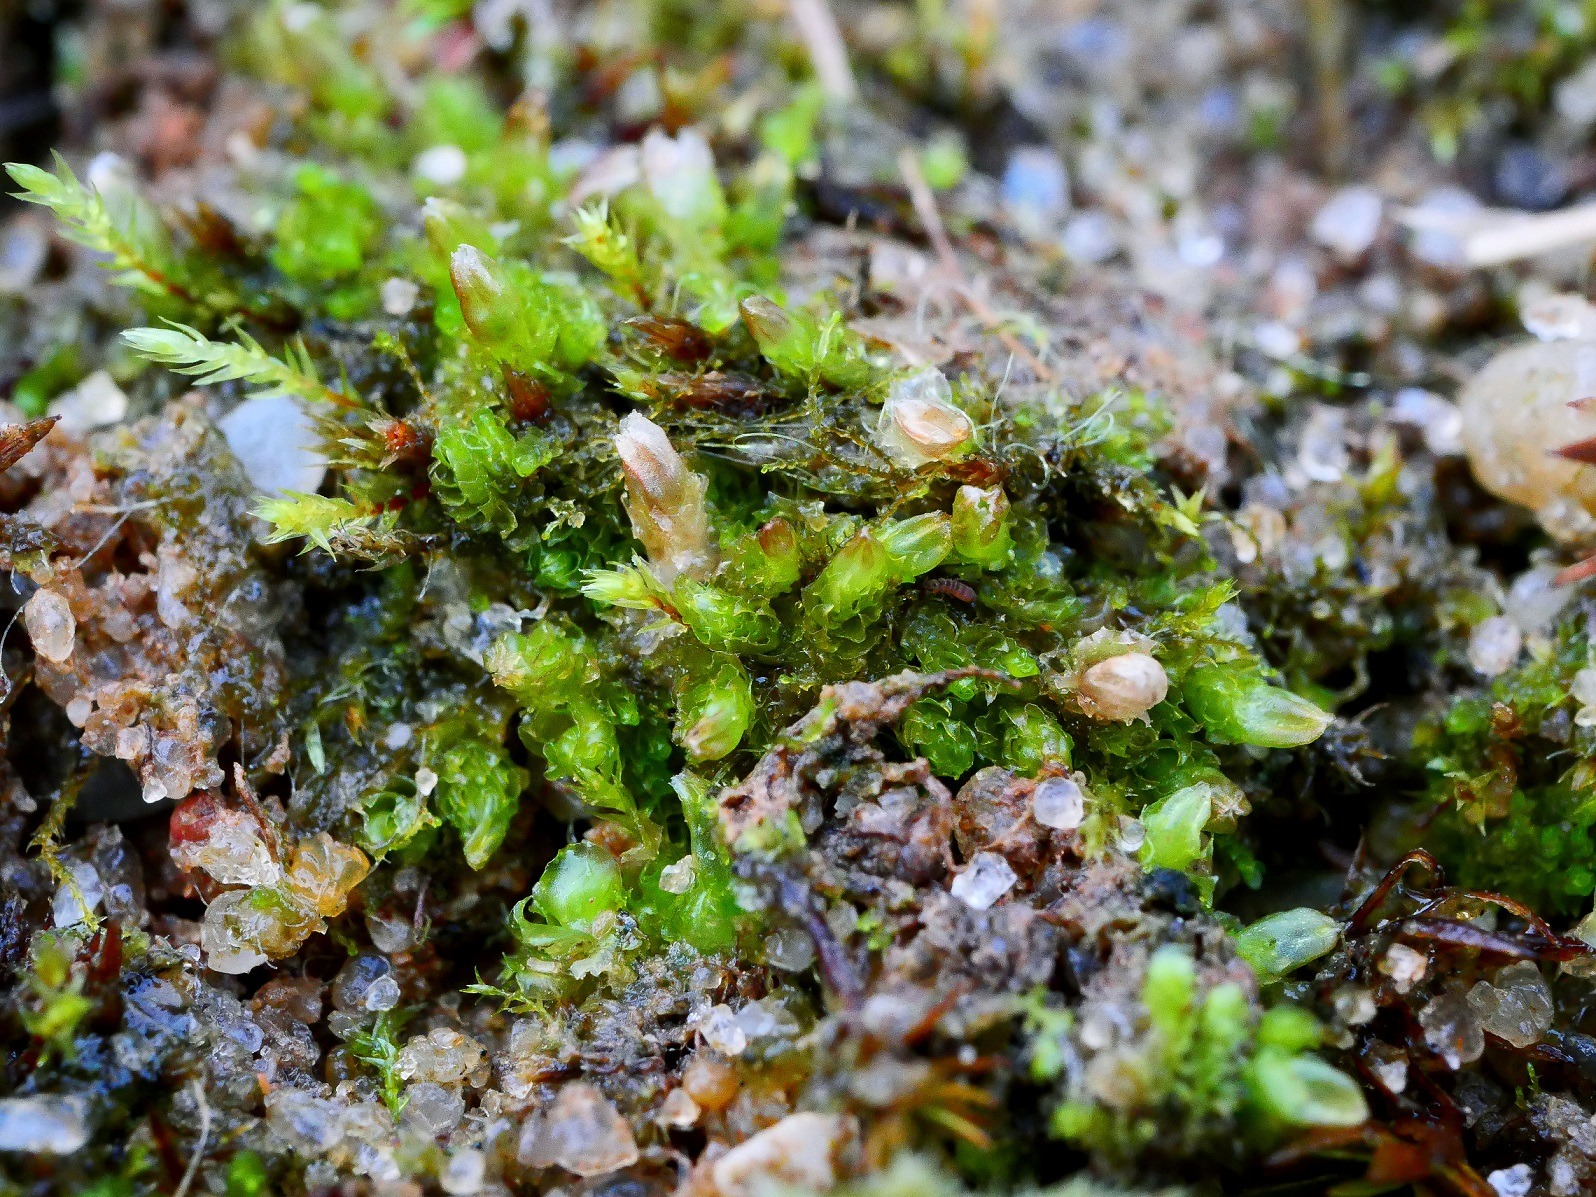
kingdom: Plantae
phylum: Marchantiophyta
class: Jungermanniopsida
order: Jungermanniales
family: Lophoziaceae
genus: Lophoziopsis
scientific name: Lophoziopsis excisa
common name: Tandet foldbæger
